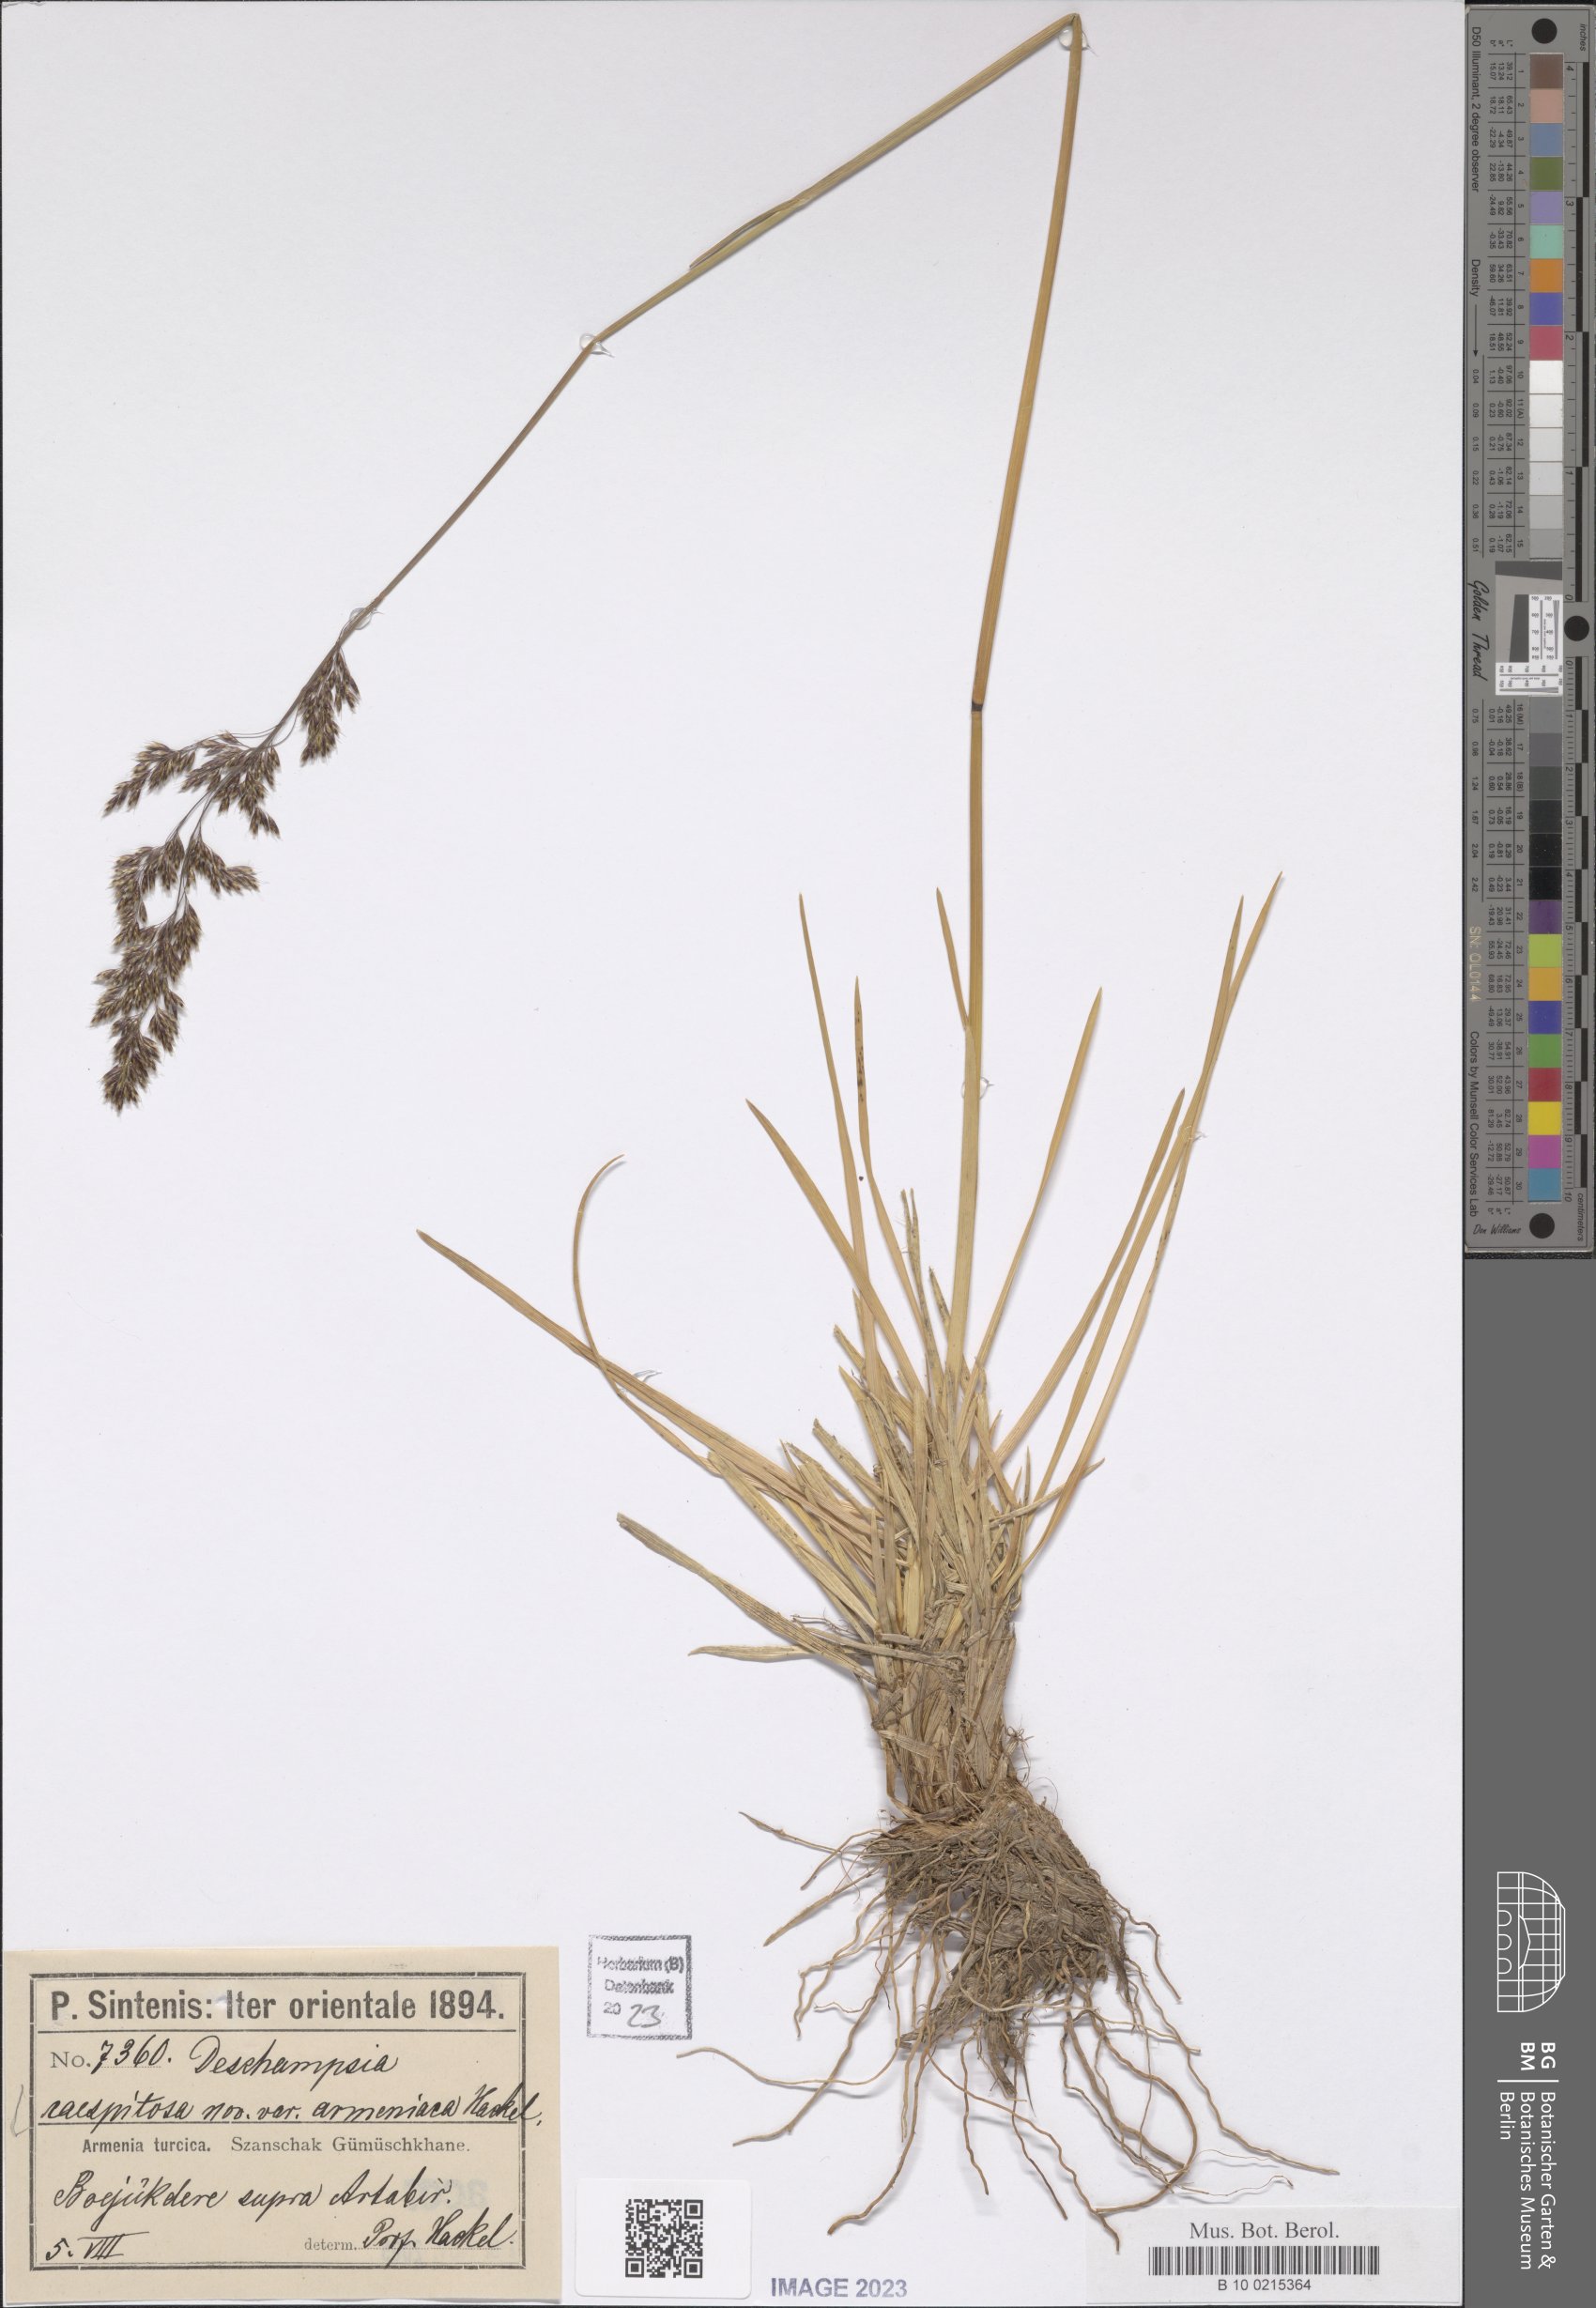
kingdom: Plantae
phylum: Tracheophyta
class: Liliopsida
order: Poales
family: Poaceae
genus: Deschampsia
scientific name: Deschampsia cespitosa
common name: Tufted hair-grass
